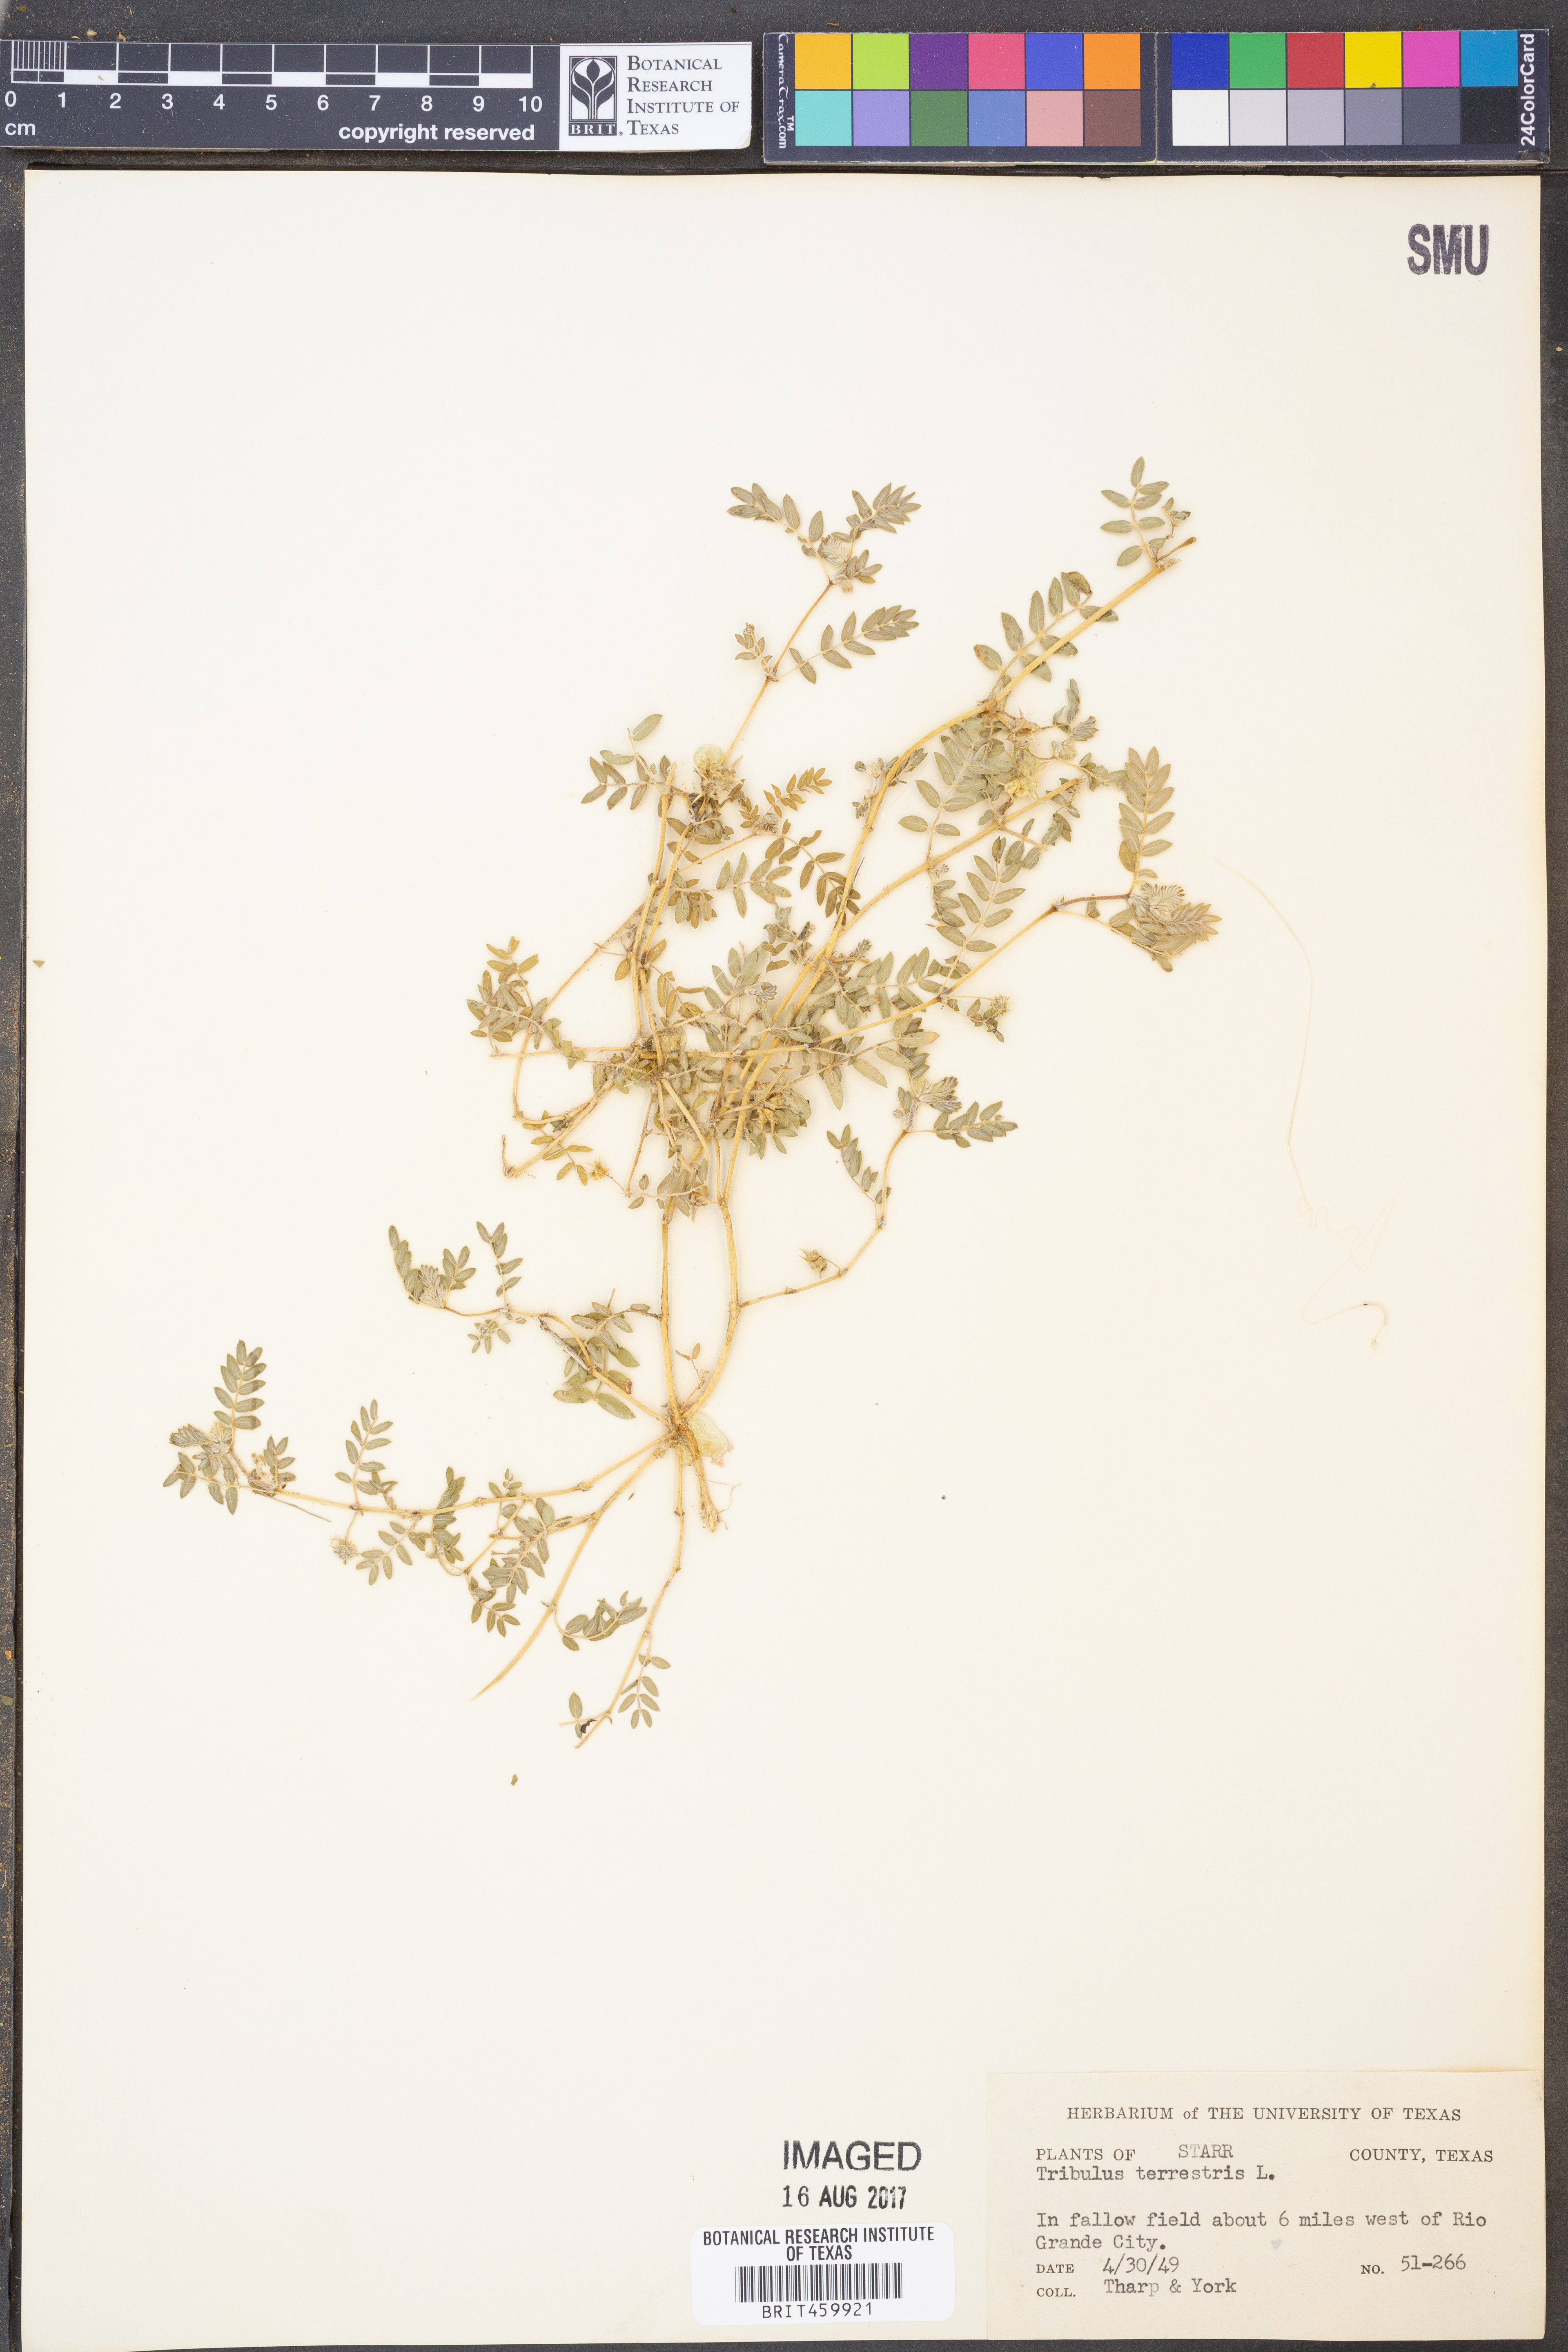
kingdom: Plantae
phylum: Tracheophyta
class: Magnoliopsida
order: Zygophyllales
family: Zygophyllaceae
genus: Tribulus
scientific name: Tribulus terrestris
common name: Puncturevine
